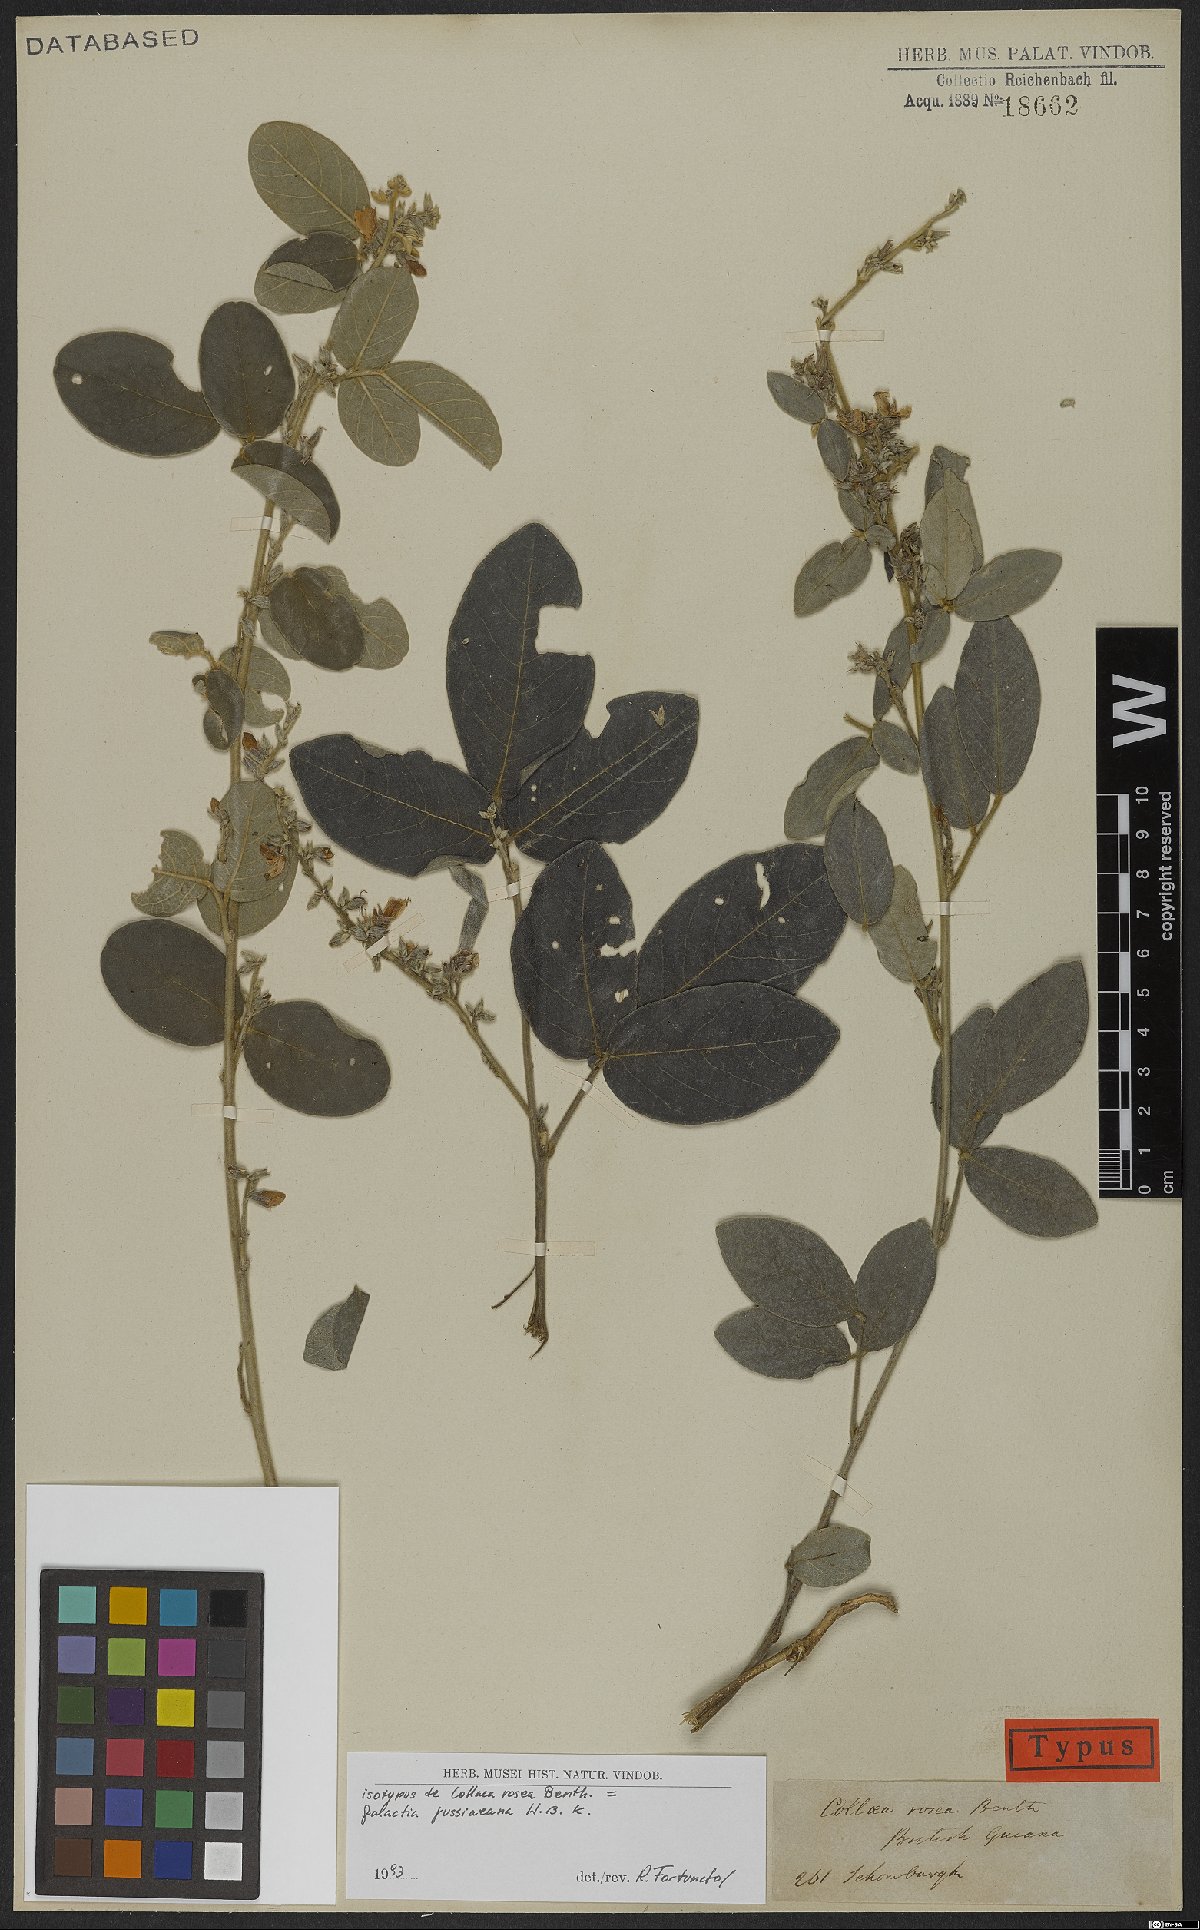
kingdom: Plantae
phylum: Tracheophyta
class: Magnoliopsida
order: Fabales
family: Fabaceae
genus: Galactia
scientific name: Galactia jussiaeana
